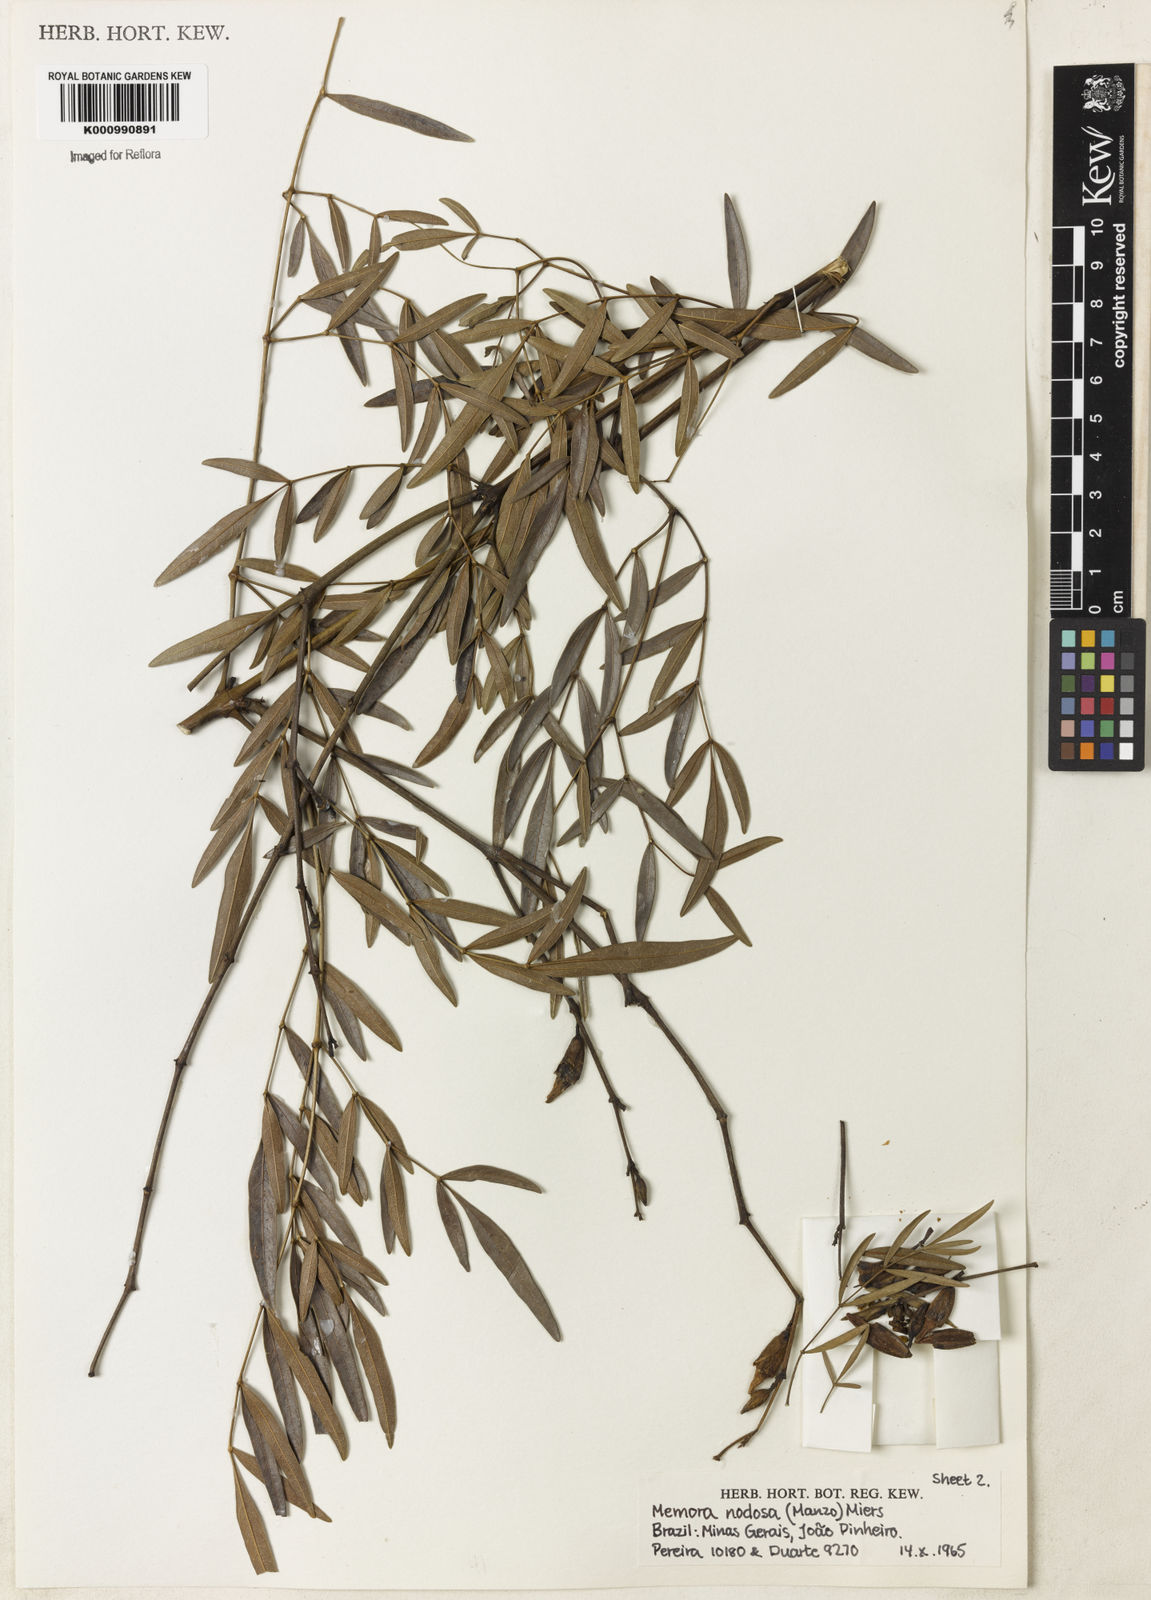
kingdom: Plantae
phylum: Tracheophyta
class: Magnoliopsida
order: Lamiales
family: Bignoniaceae
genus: Adenocalymma
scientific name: Adenocalymma nodosum
